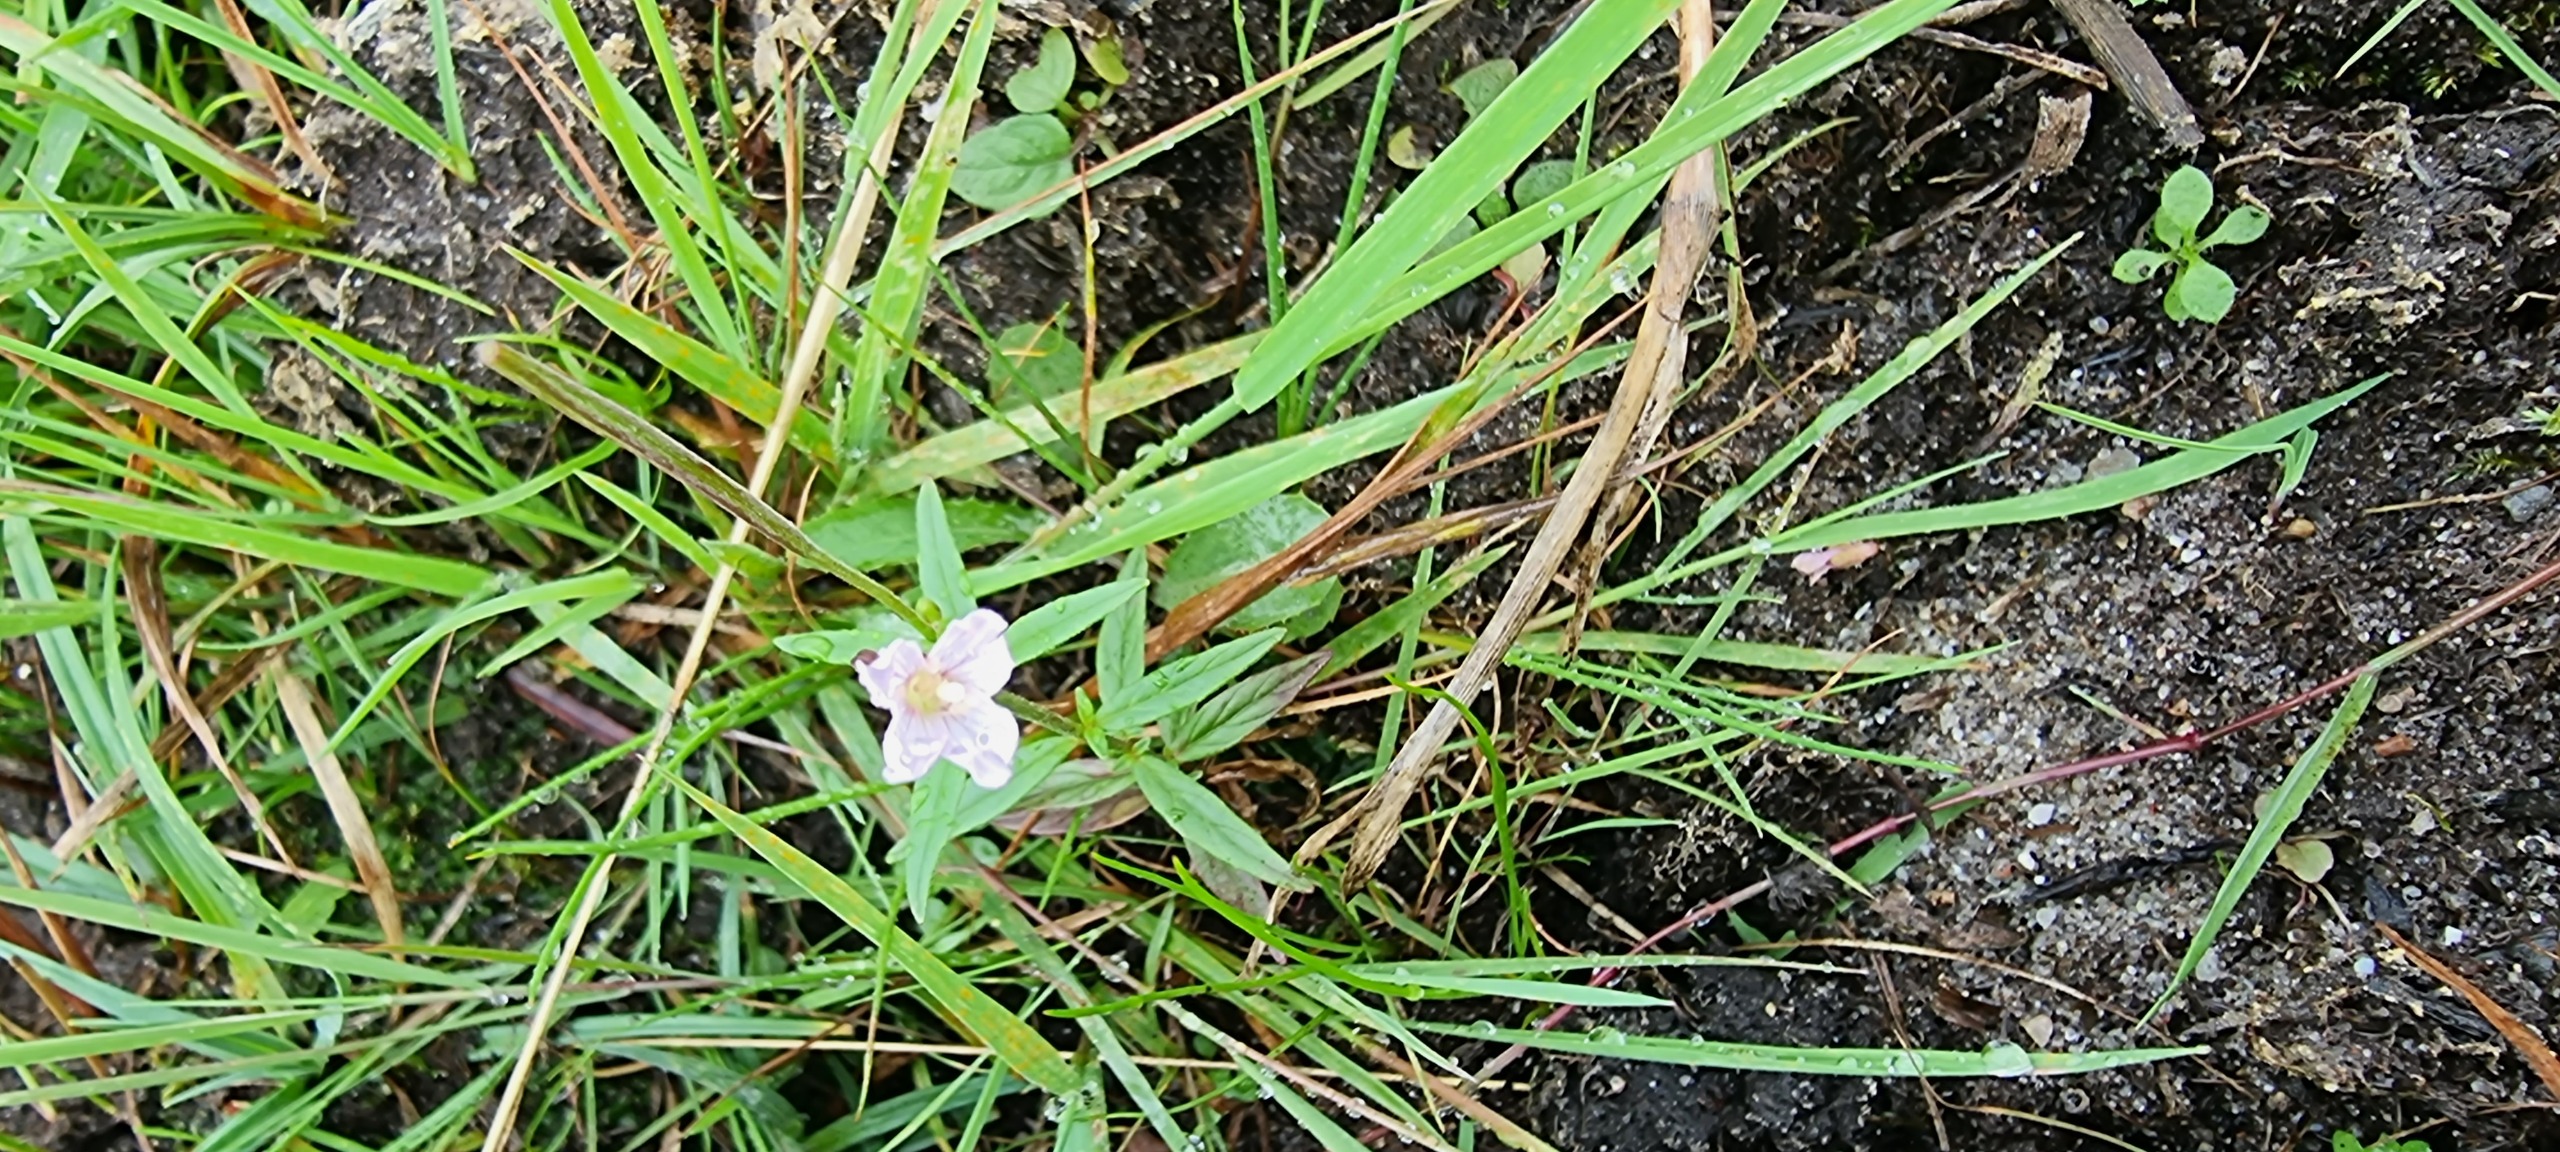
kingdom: Plantae
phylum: Tracheophyta
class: Magnoliopsida
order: Myrtales
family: Onagraceae
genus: Epilobium
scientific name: Epilobium palustre
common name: Kær-dueurt
